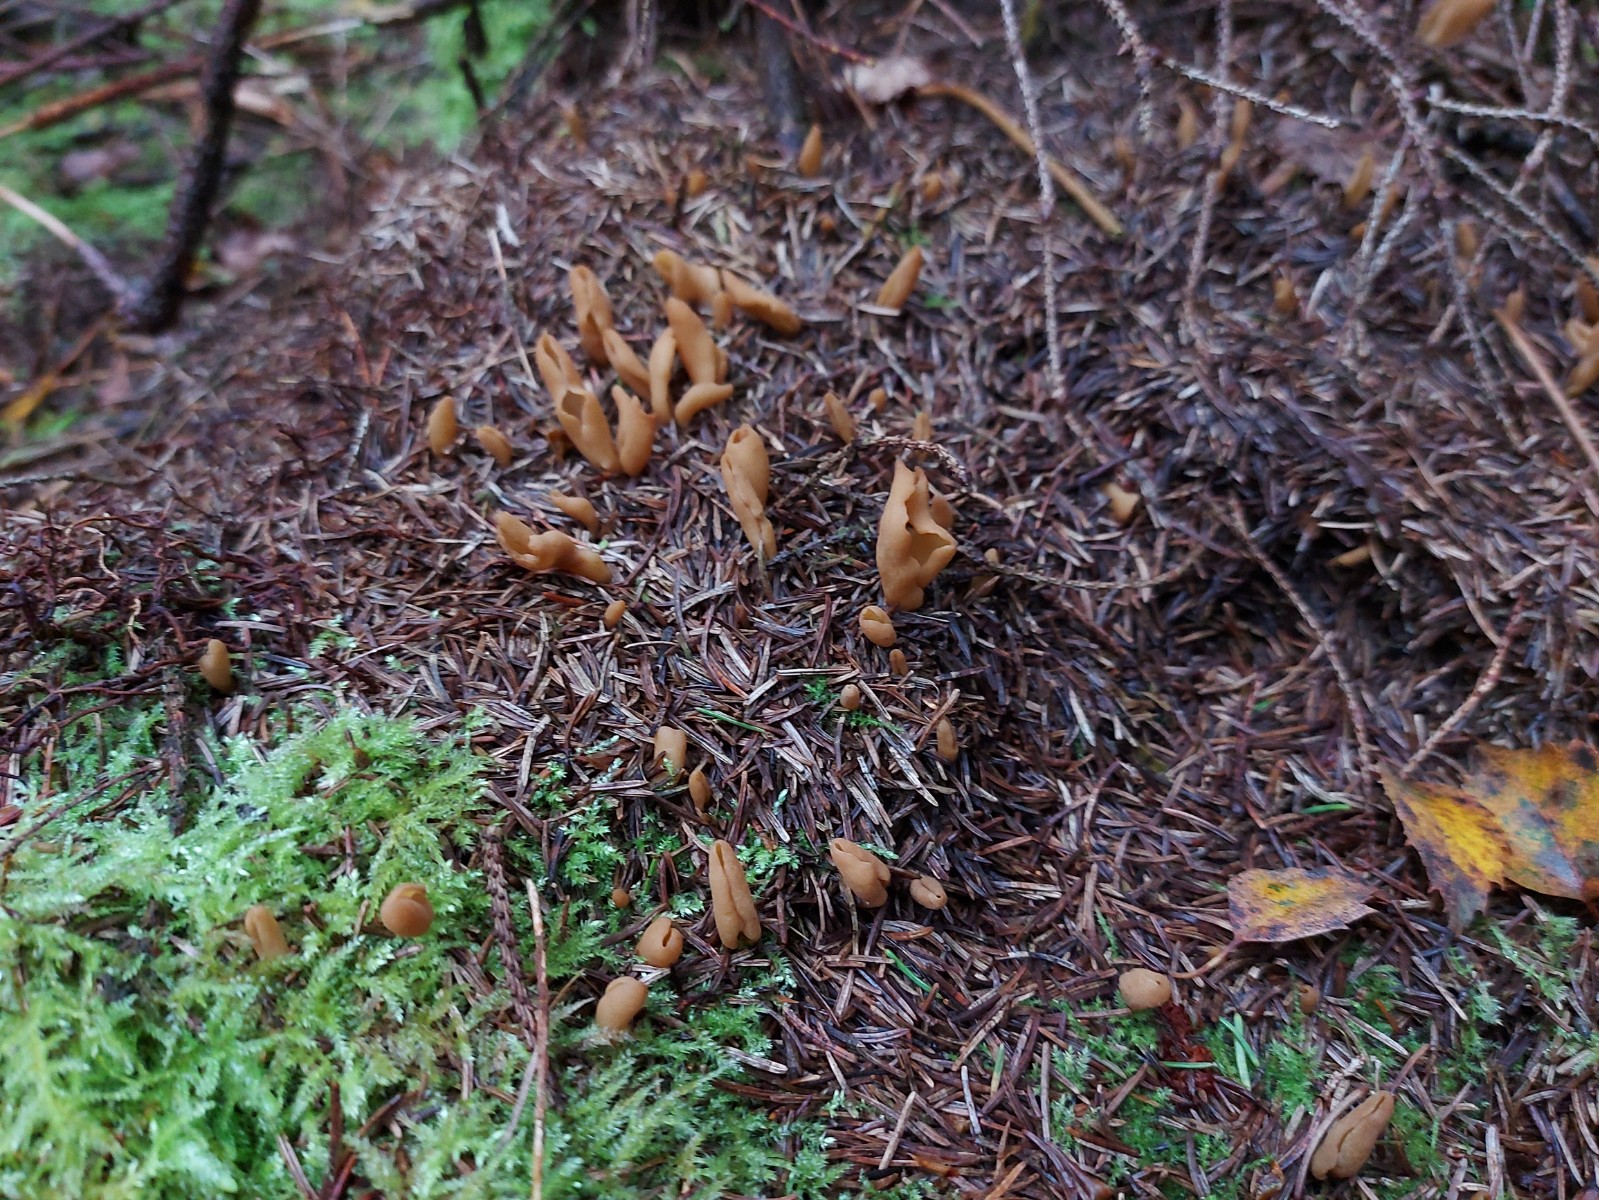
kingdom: Fungi
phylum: Ascomycota
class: Pezizomycetes
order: Pezizales
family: Otideaceae
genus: Otidea
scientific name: Otidea
